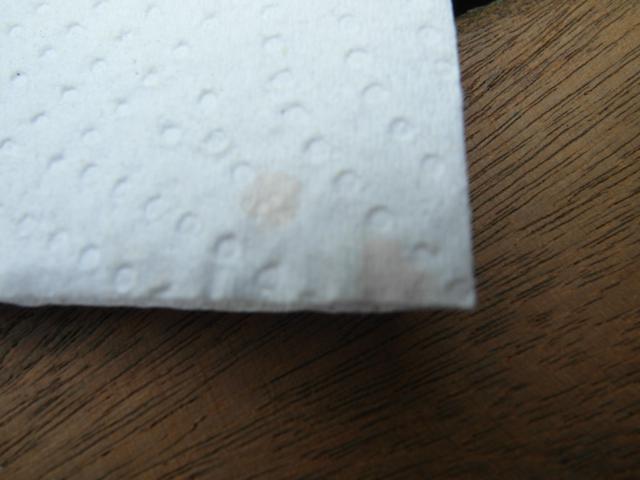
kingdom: Fungi
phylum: Basidiomycota
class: Agaricomycetes
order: Agaricales
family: Mycenaceae
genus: Mycena
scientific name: Mycena sanguinolenta
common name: rødmælket huesvamp
